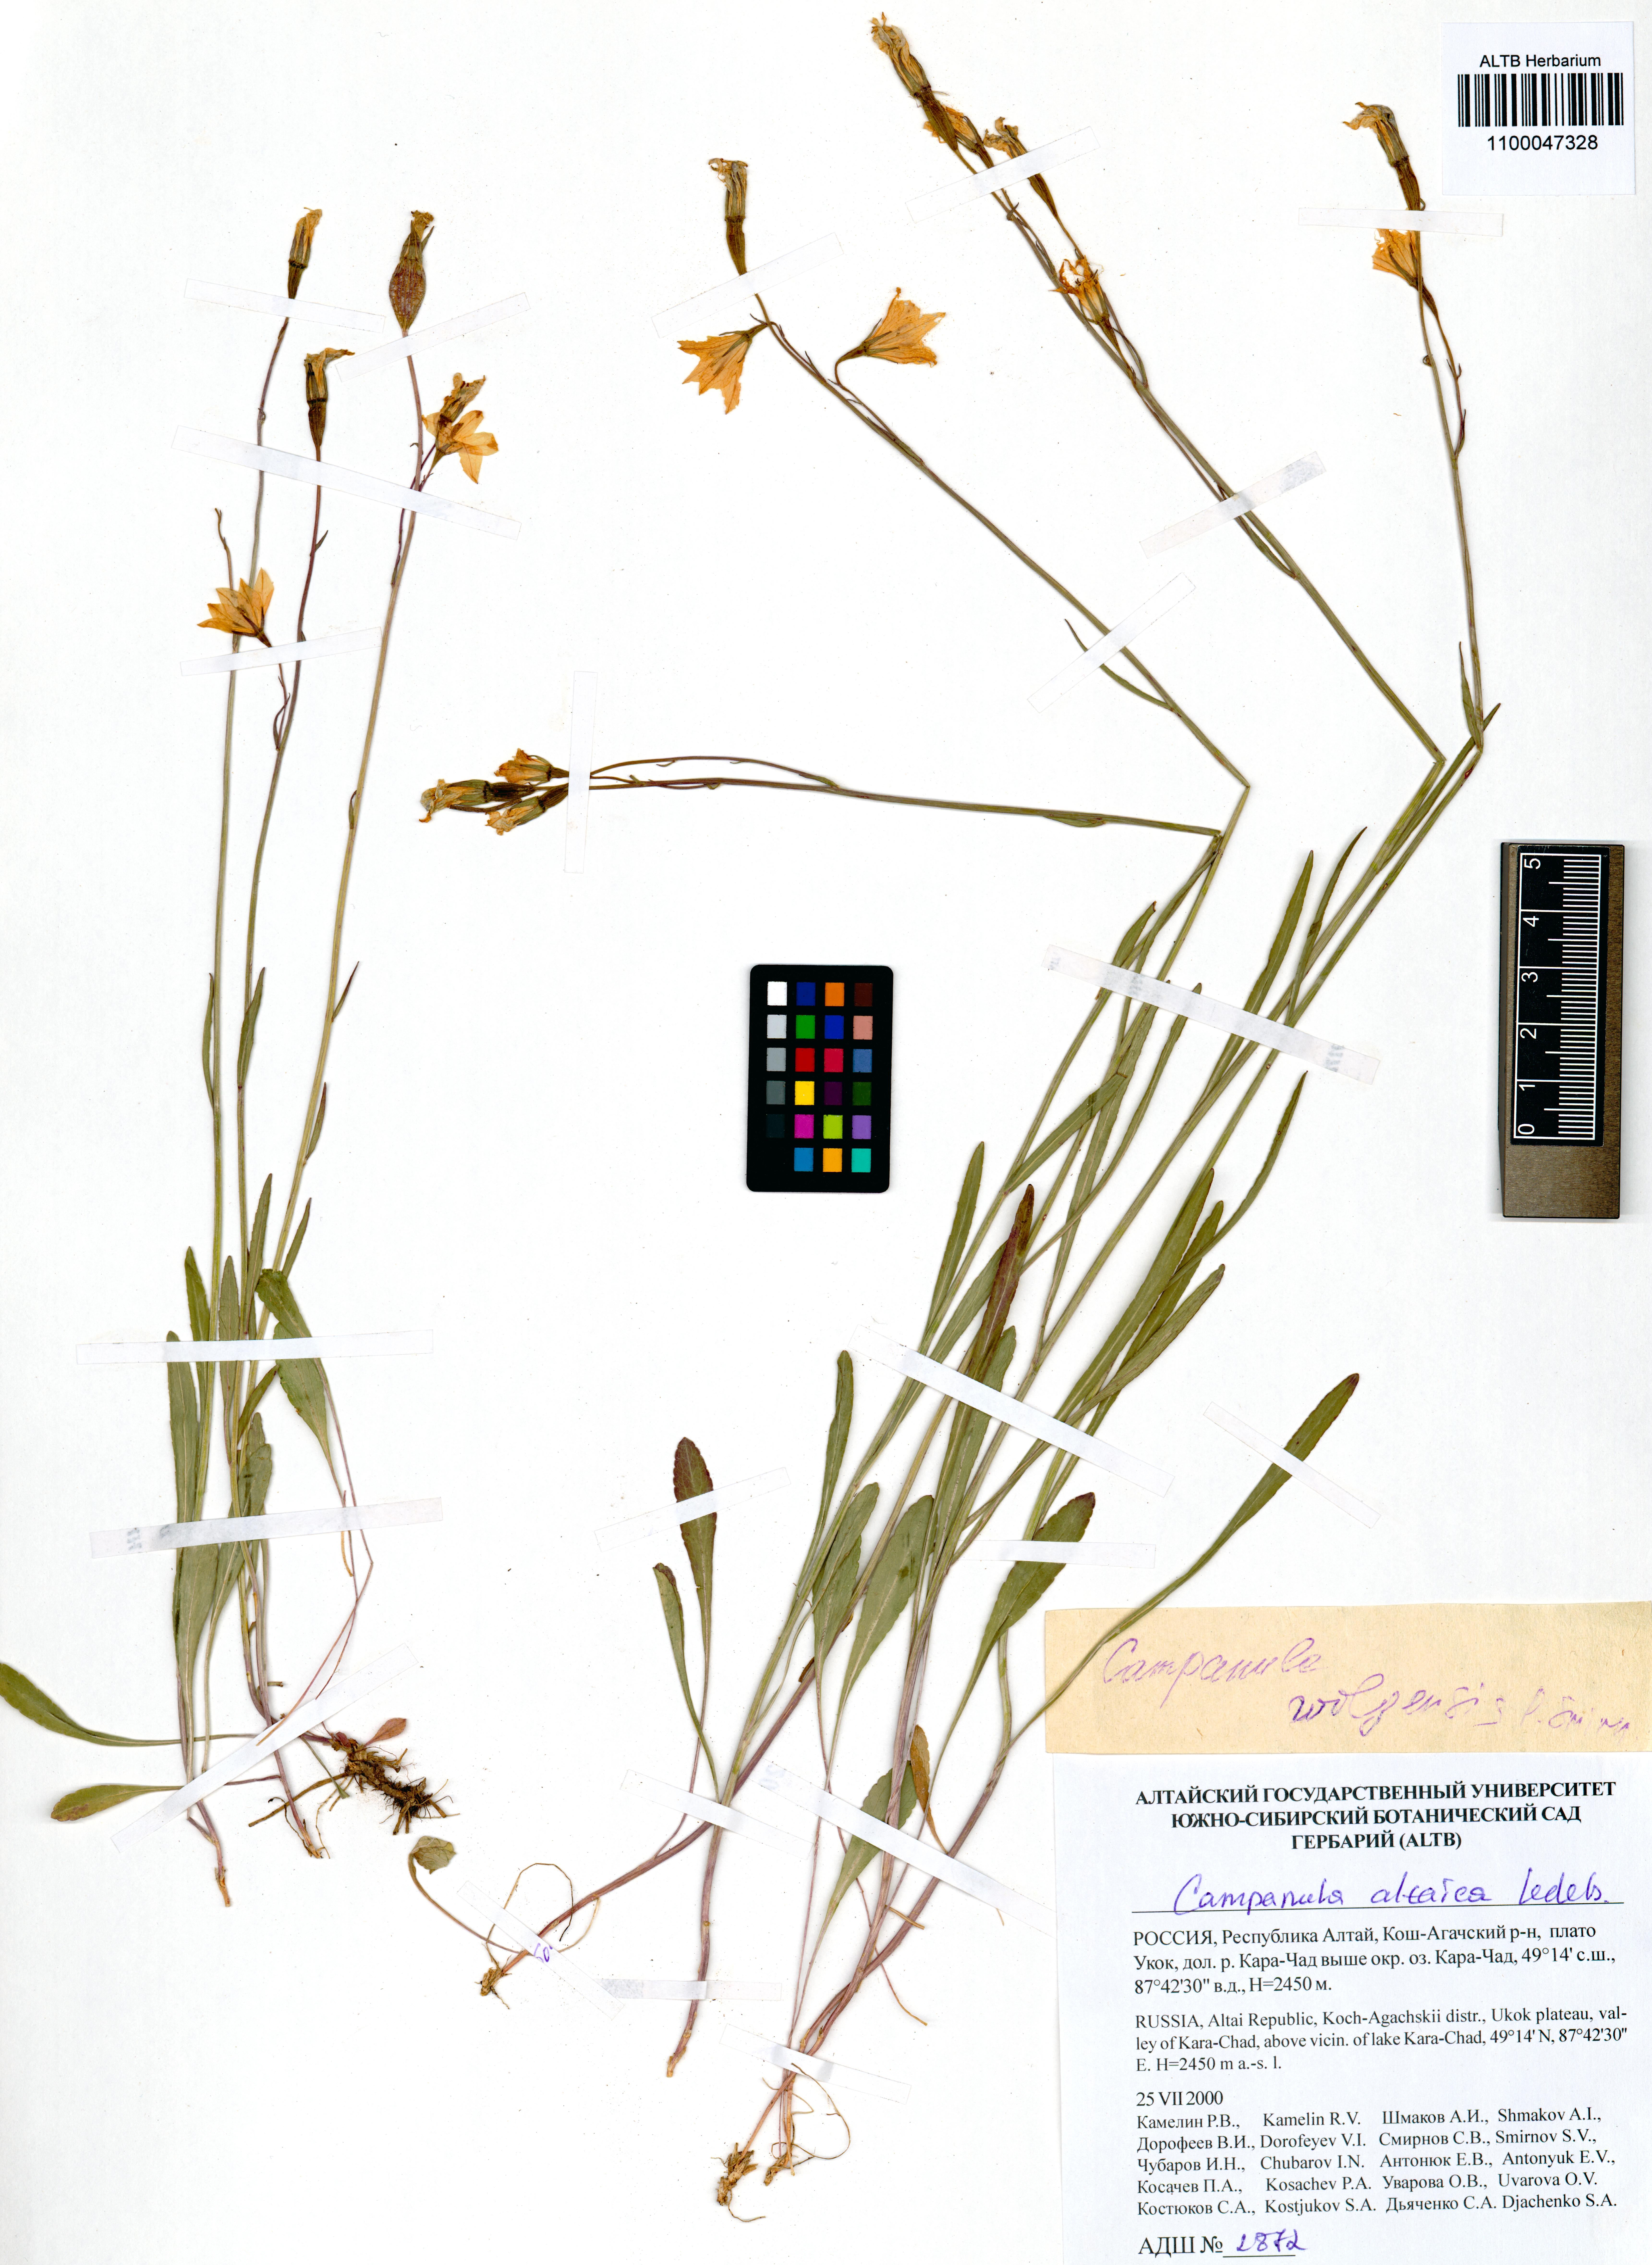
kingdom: Plantae
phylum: Tracheophyta
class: Magnoliopsida
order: Asterales
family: Campanulaceae
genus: Campanula
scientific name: Campanula stevenii
